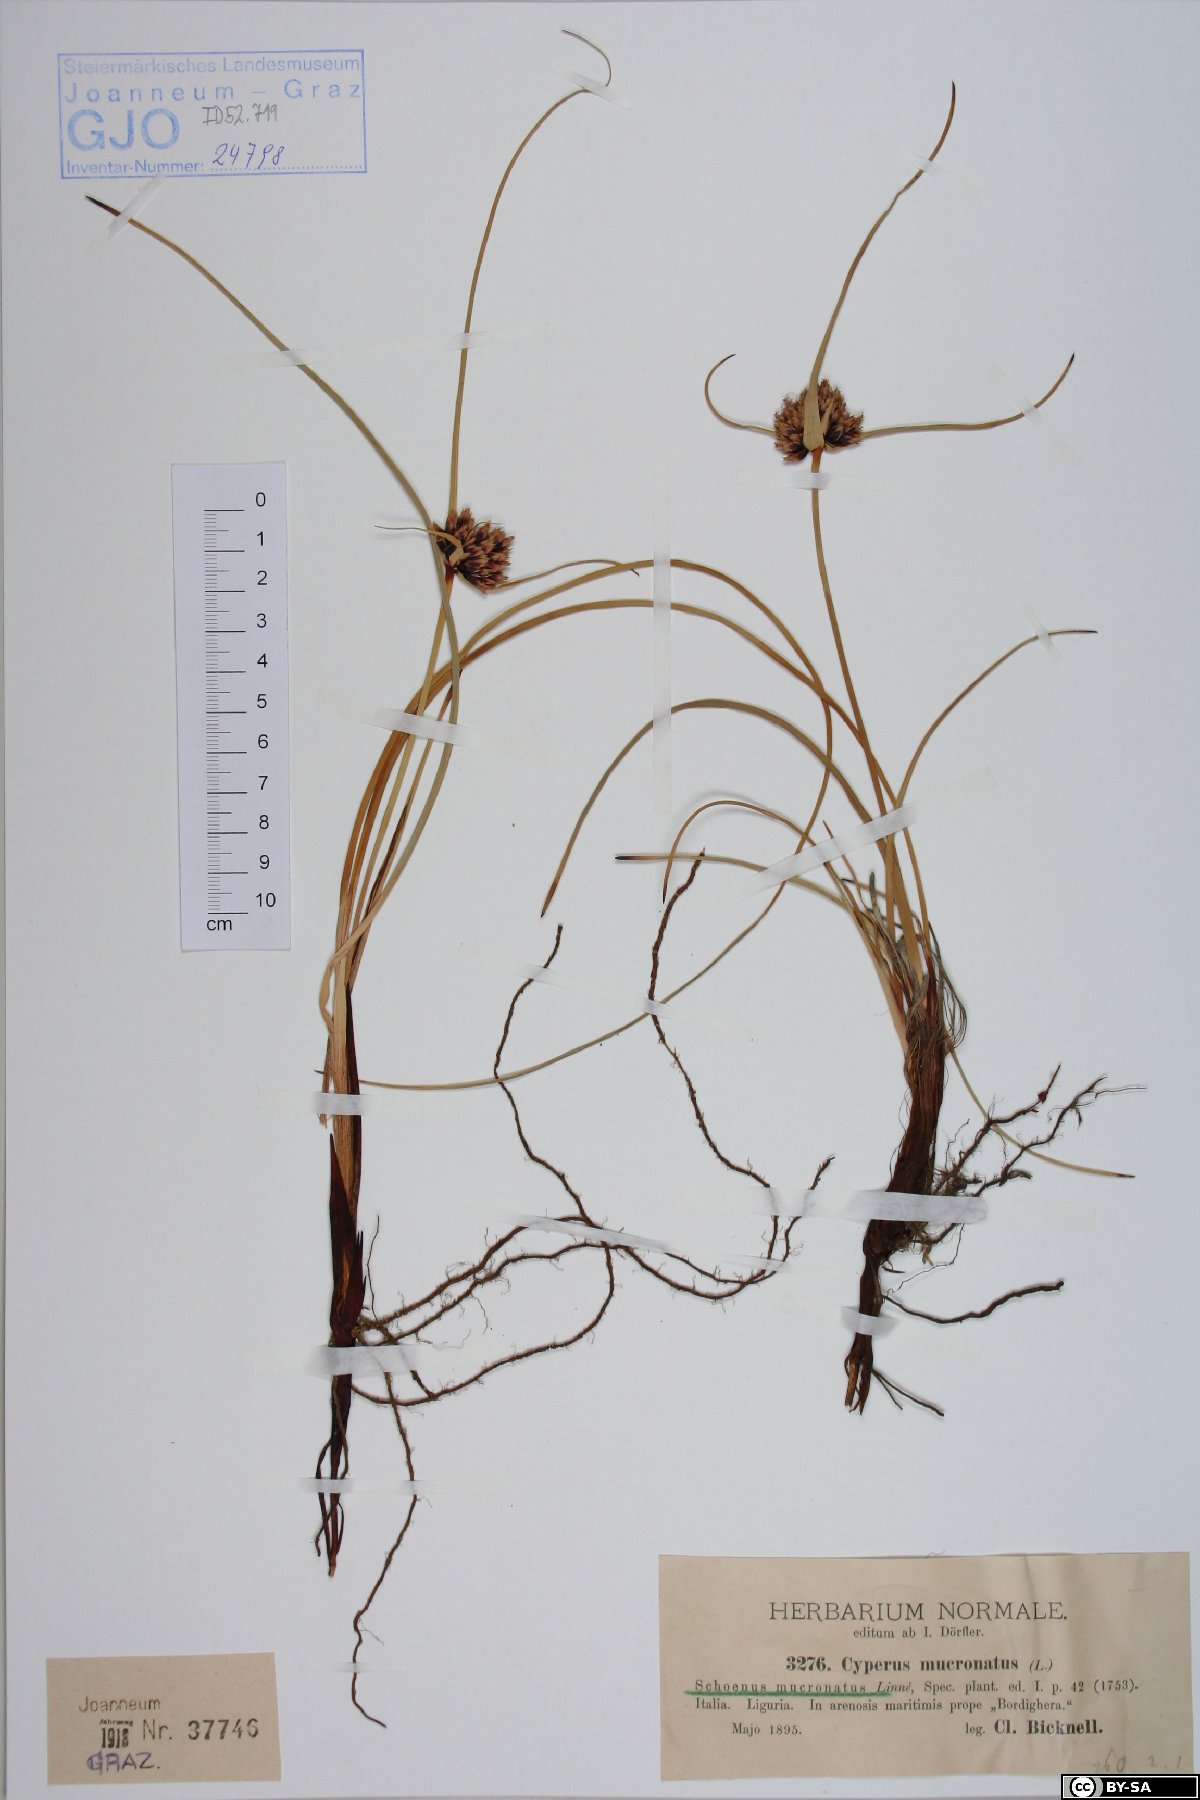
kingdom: Plantae
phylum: Tracheophyta
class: Liliopsida
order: Poales
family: Cyperaceae
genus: Cyperus
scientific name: Cyperus capitatus
